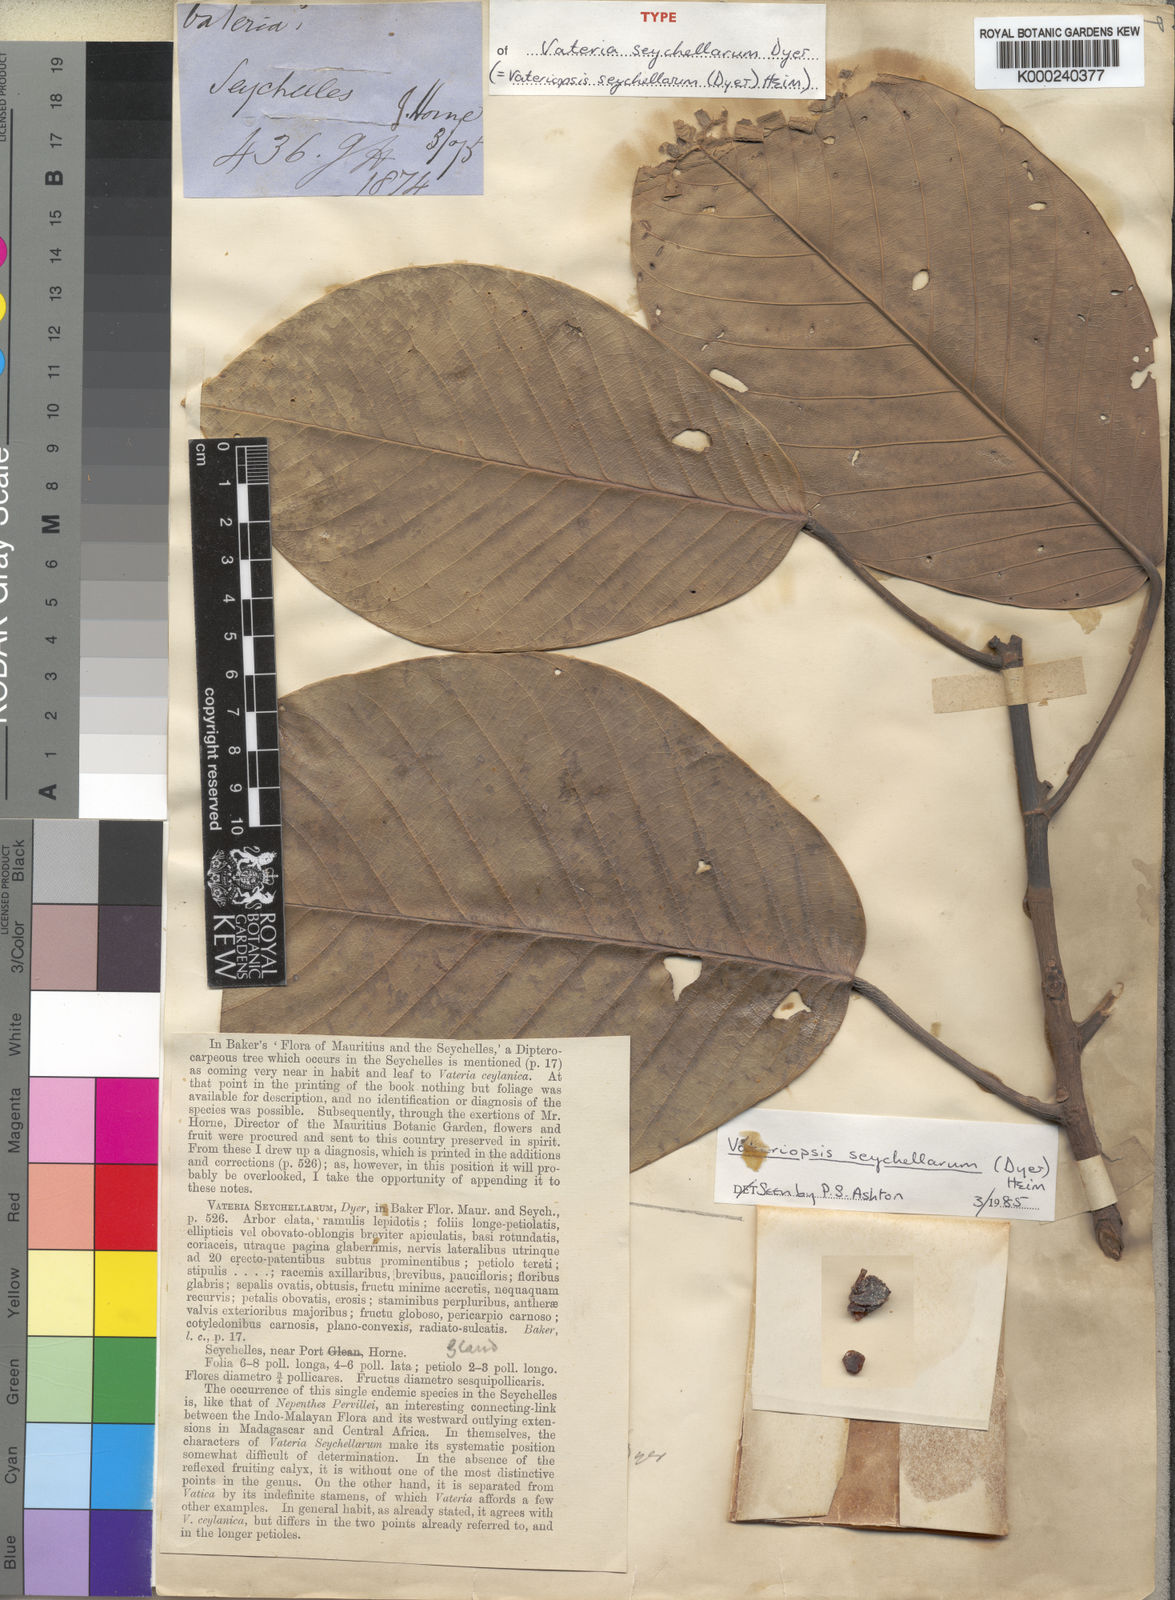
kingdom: Plantae
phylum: Tracheophyta
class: Magnoliopsida
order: Malvales
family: Dipterocarpaceae
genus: Vateriopsis
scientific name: Vateriopsis seychellarum
